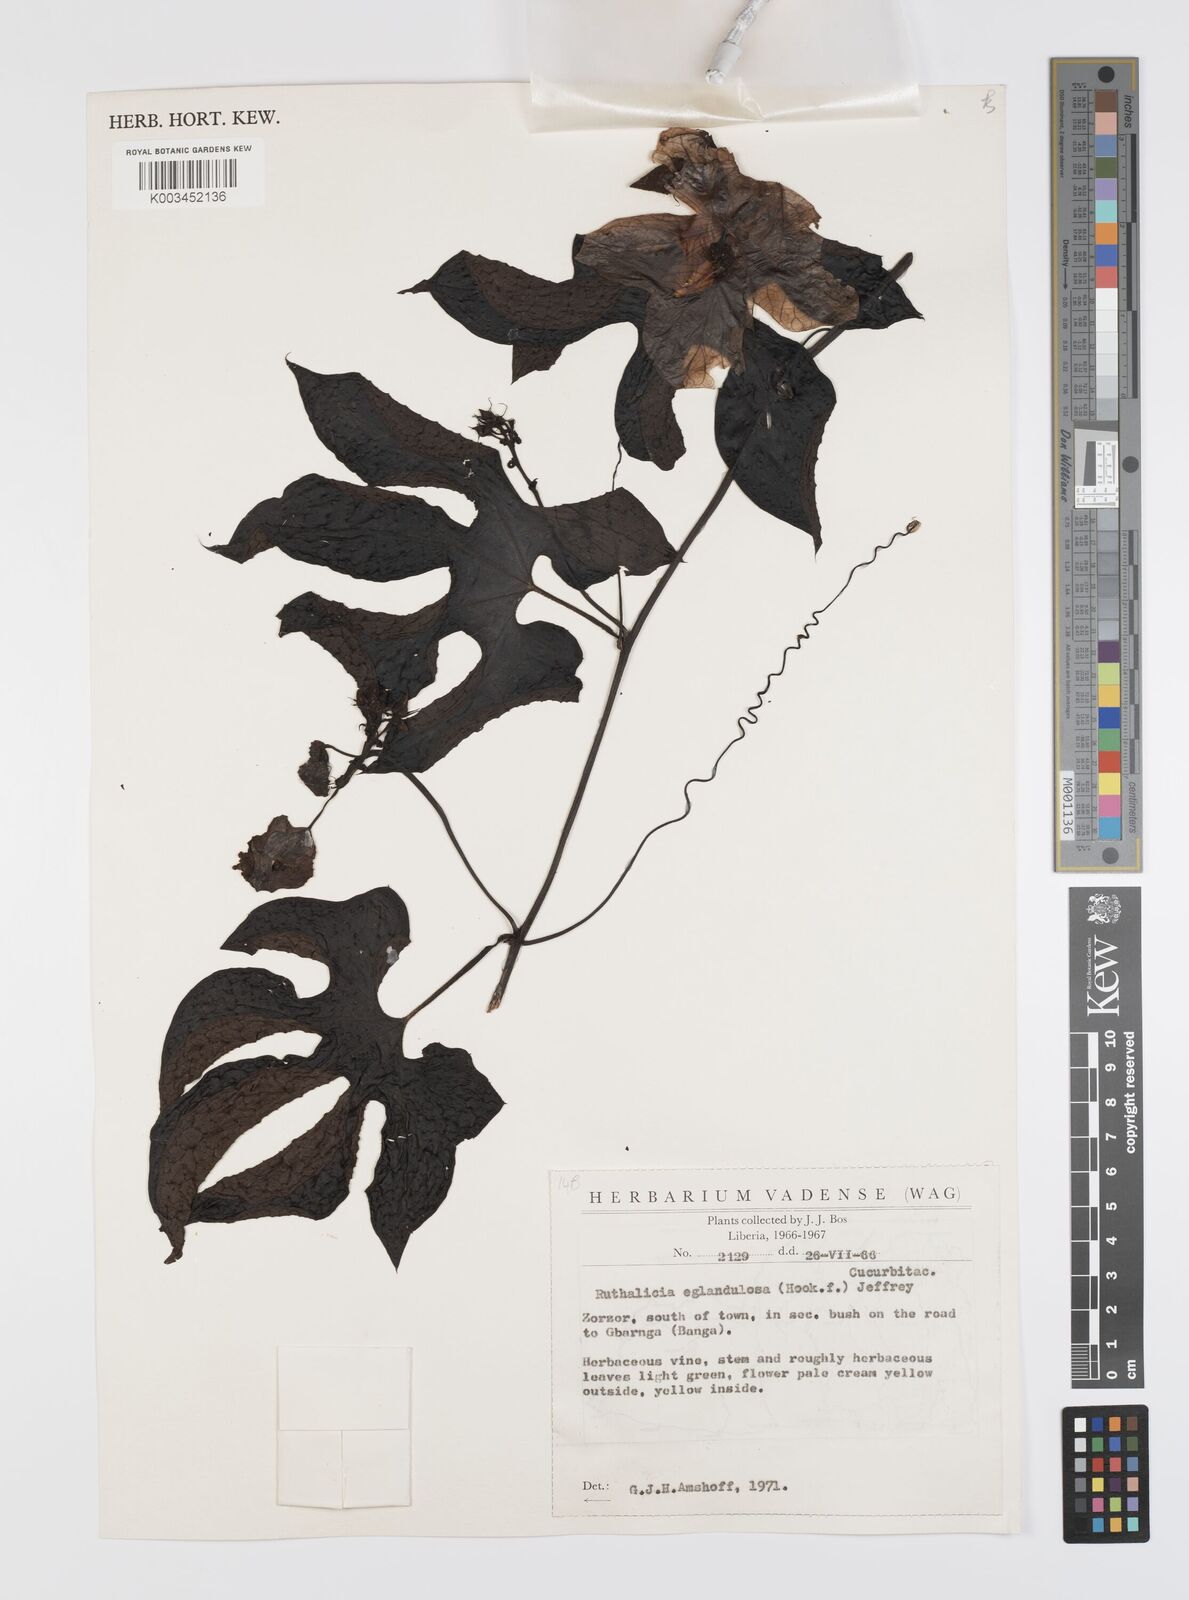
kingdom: Plantae
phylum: Tracheophyta
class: Magnoliopsida
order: Cucurbitales
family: Cucurbitaceae
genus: Ruthalicia
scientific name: Ruthalicia eglandulosa
